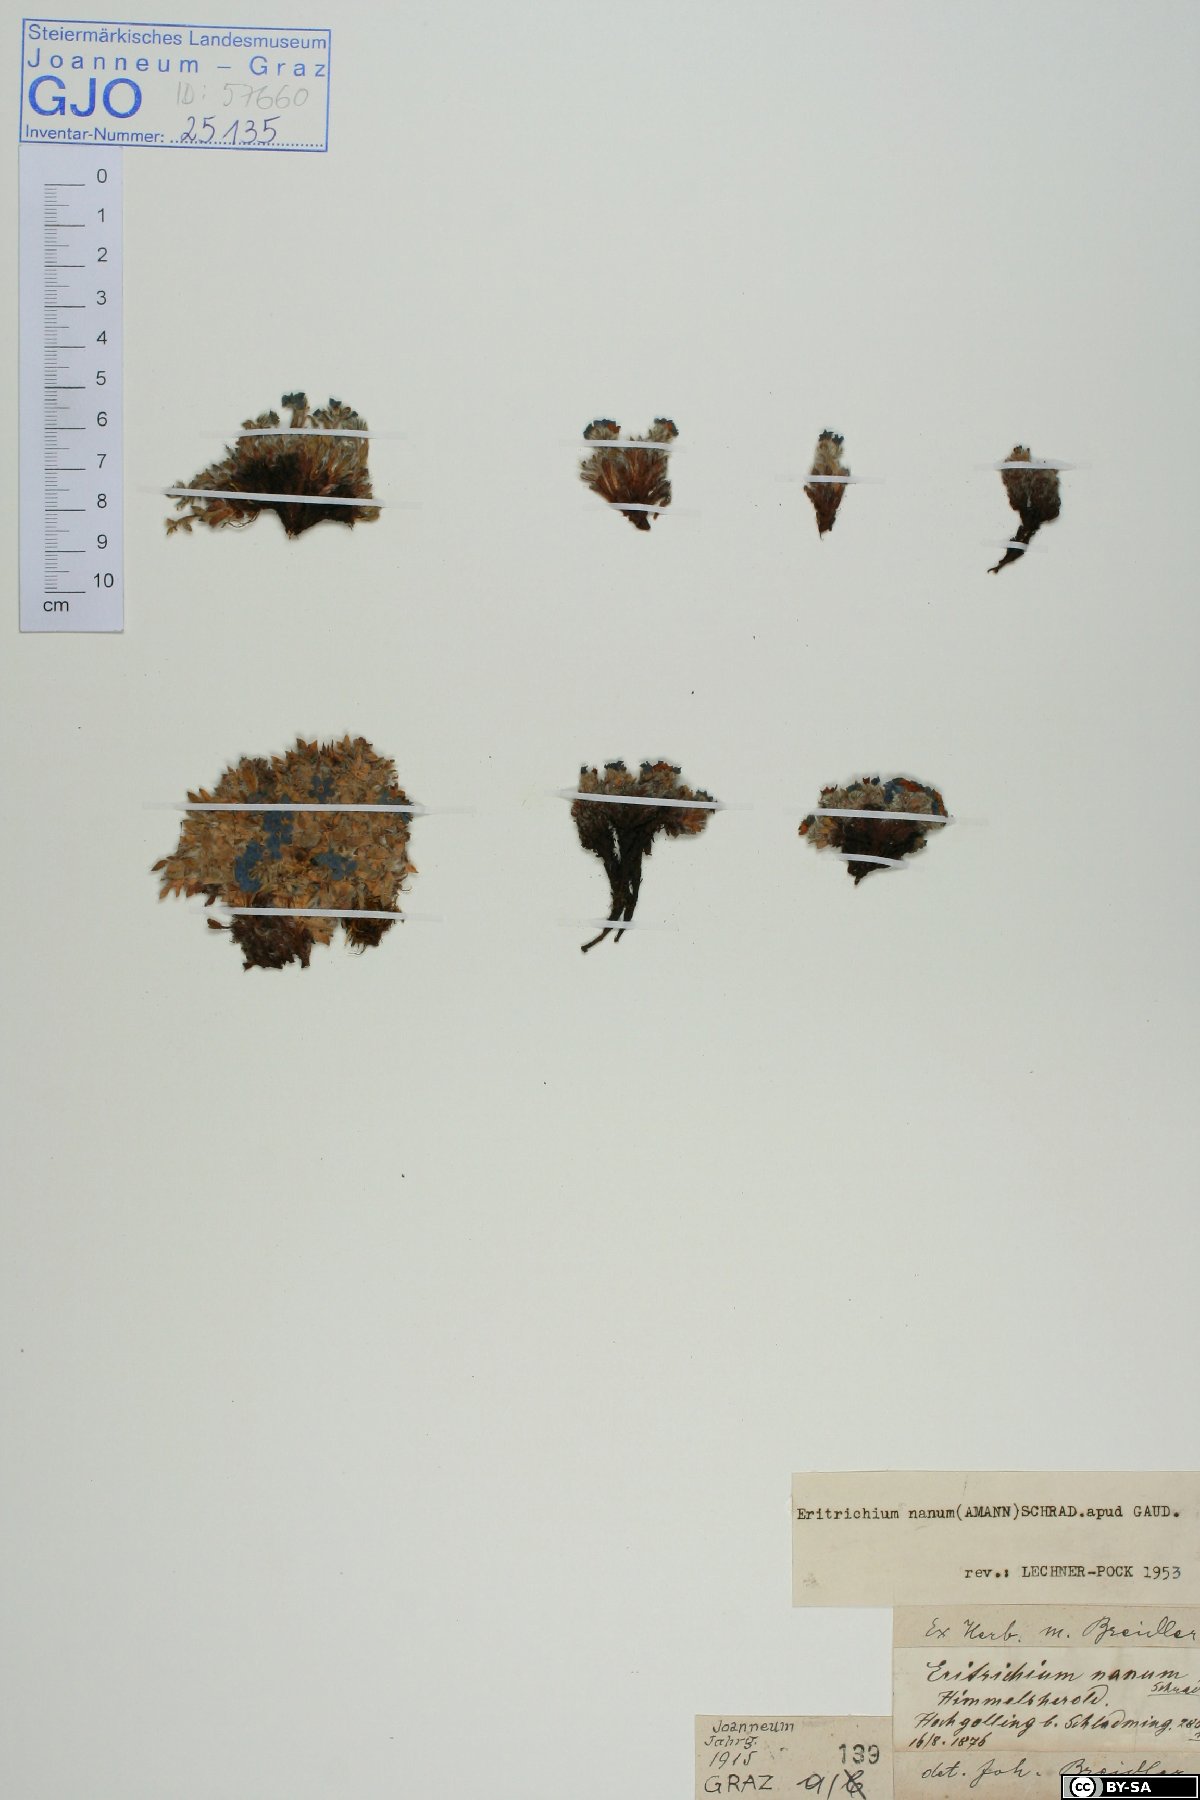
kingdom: Plantae
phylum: Tracheophyta
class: Magnoliopsida
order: Boraginales
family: Boraginaceae
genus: Eritrichium
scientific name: Eritrichium nanum
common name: King-of-the-alps
